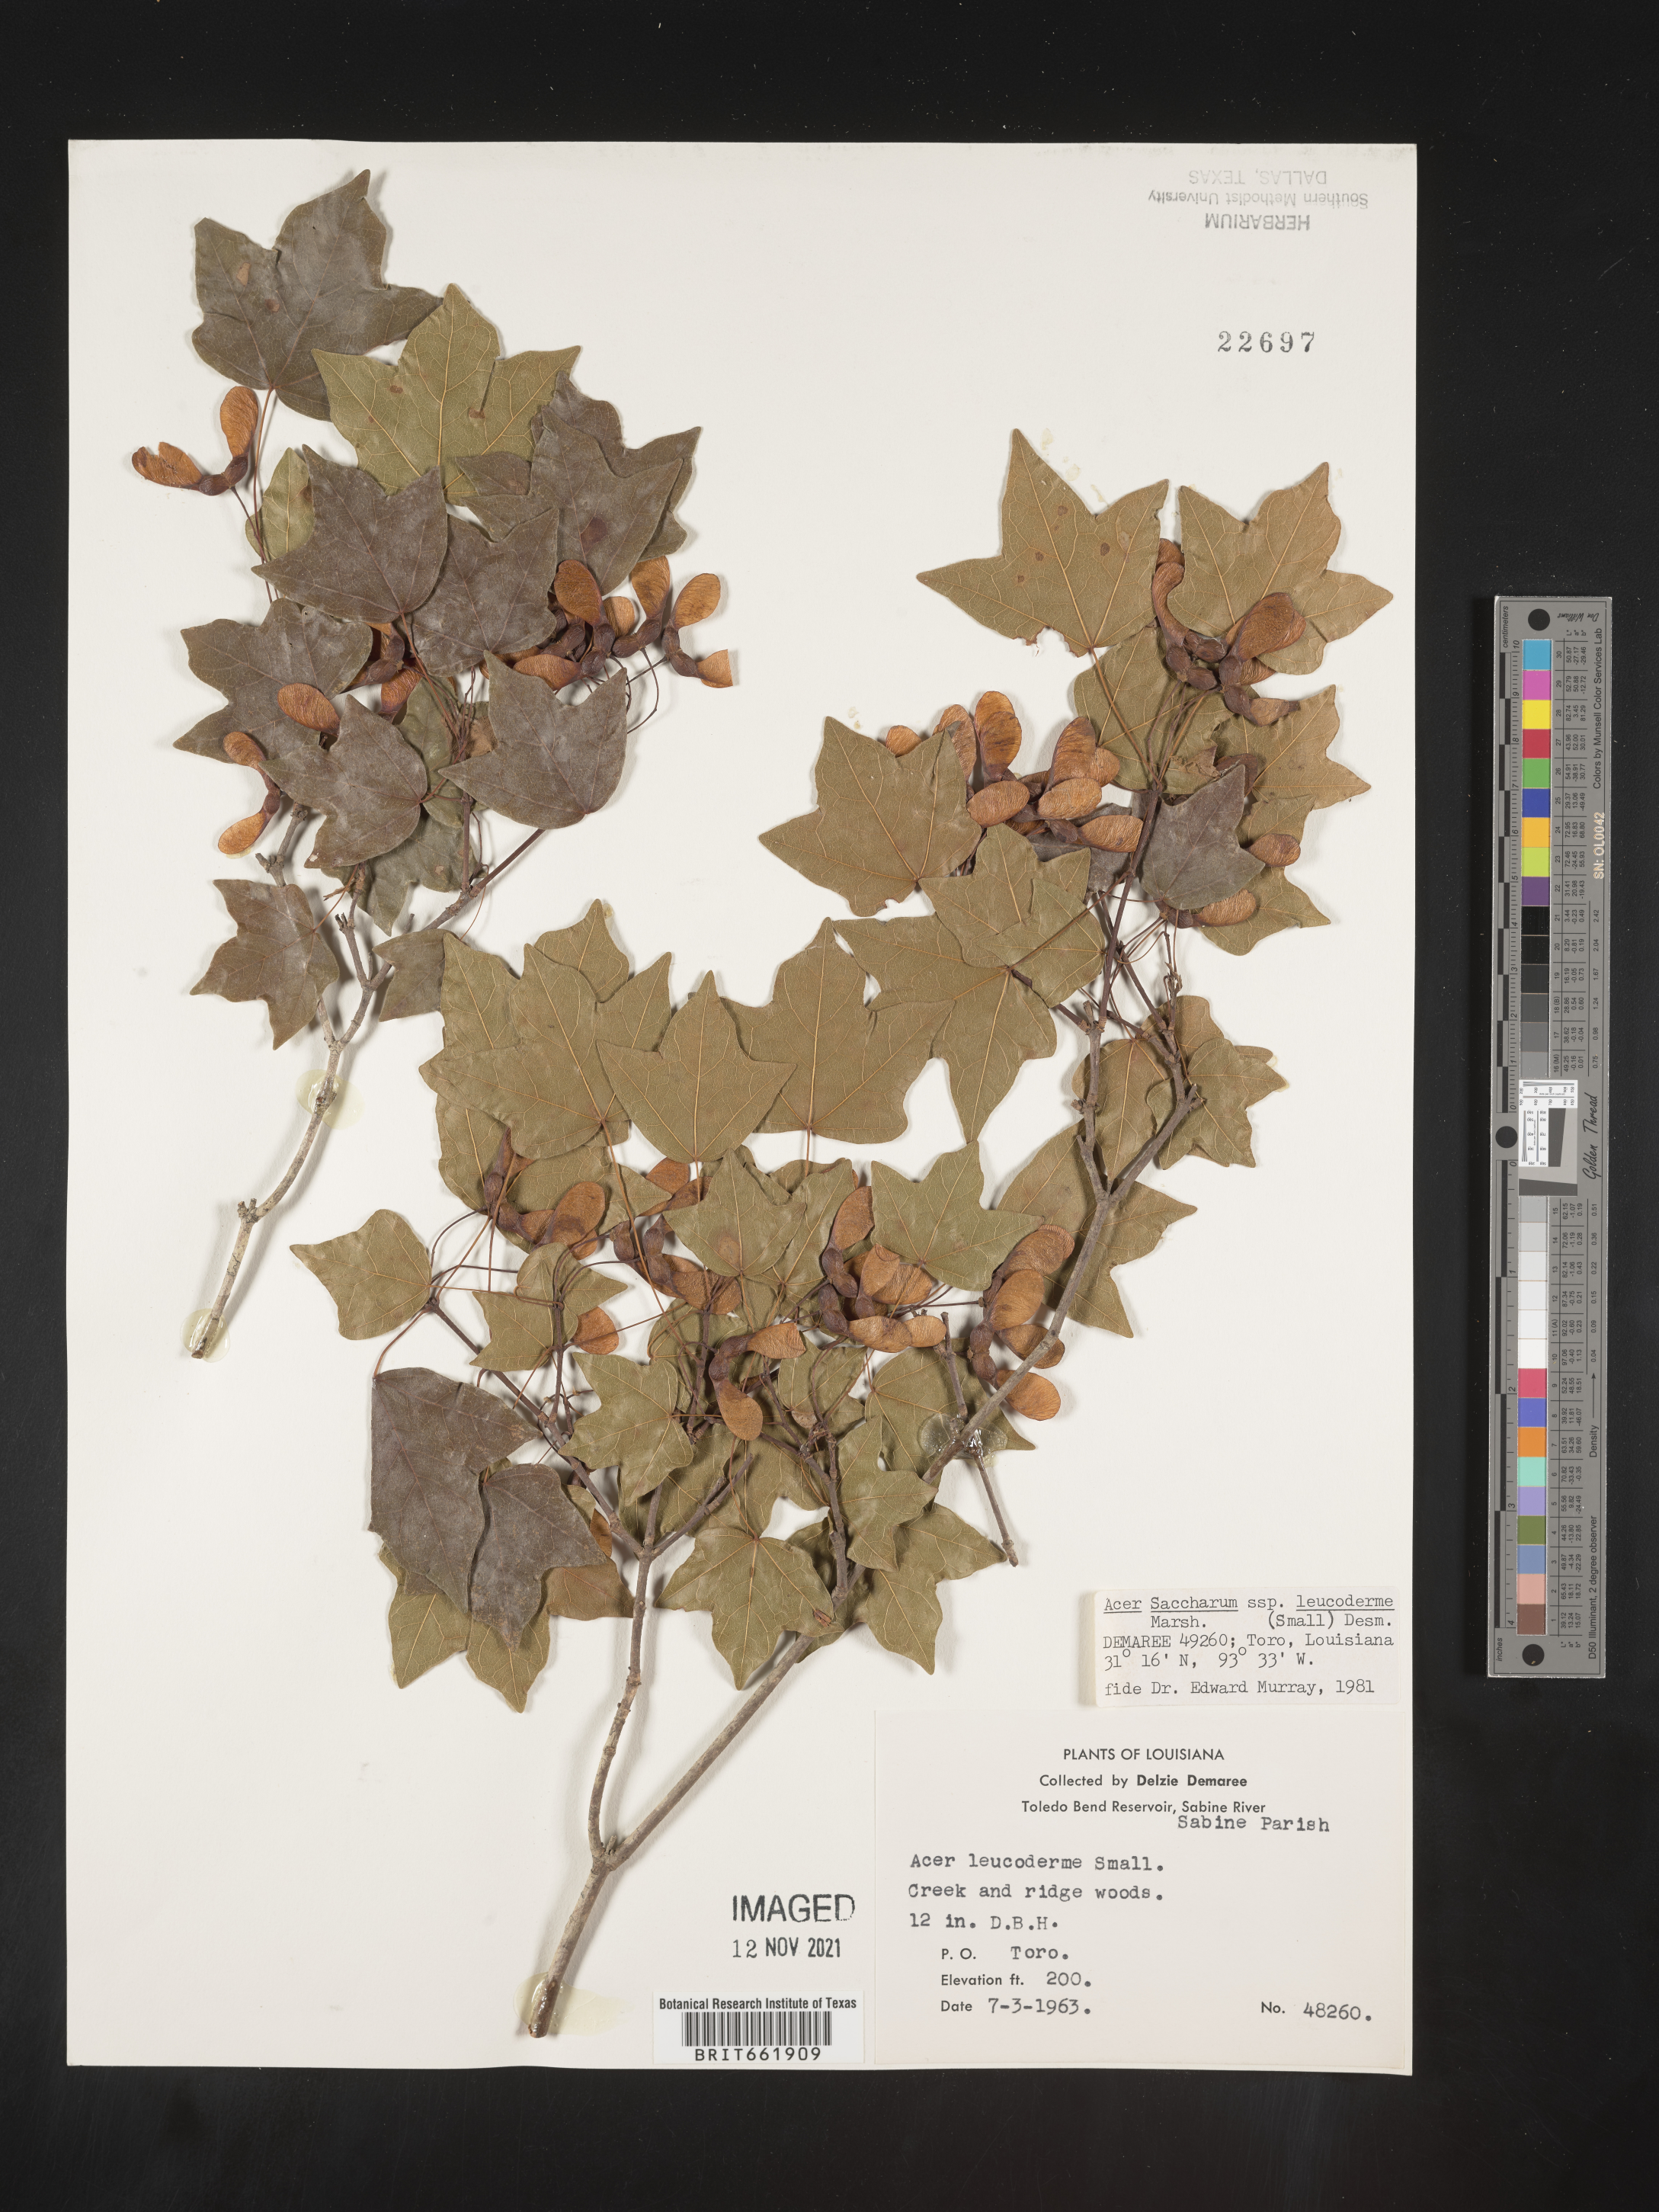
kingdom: Plantae
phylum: Tracheophyta
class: Magnoliopsida
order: Sapindales
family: Sapindaceae
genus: Acer
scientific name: Acer leucoderme
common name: Chalk maple
